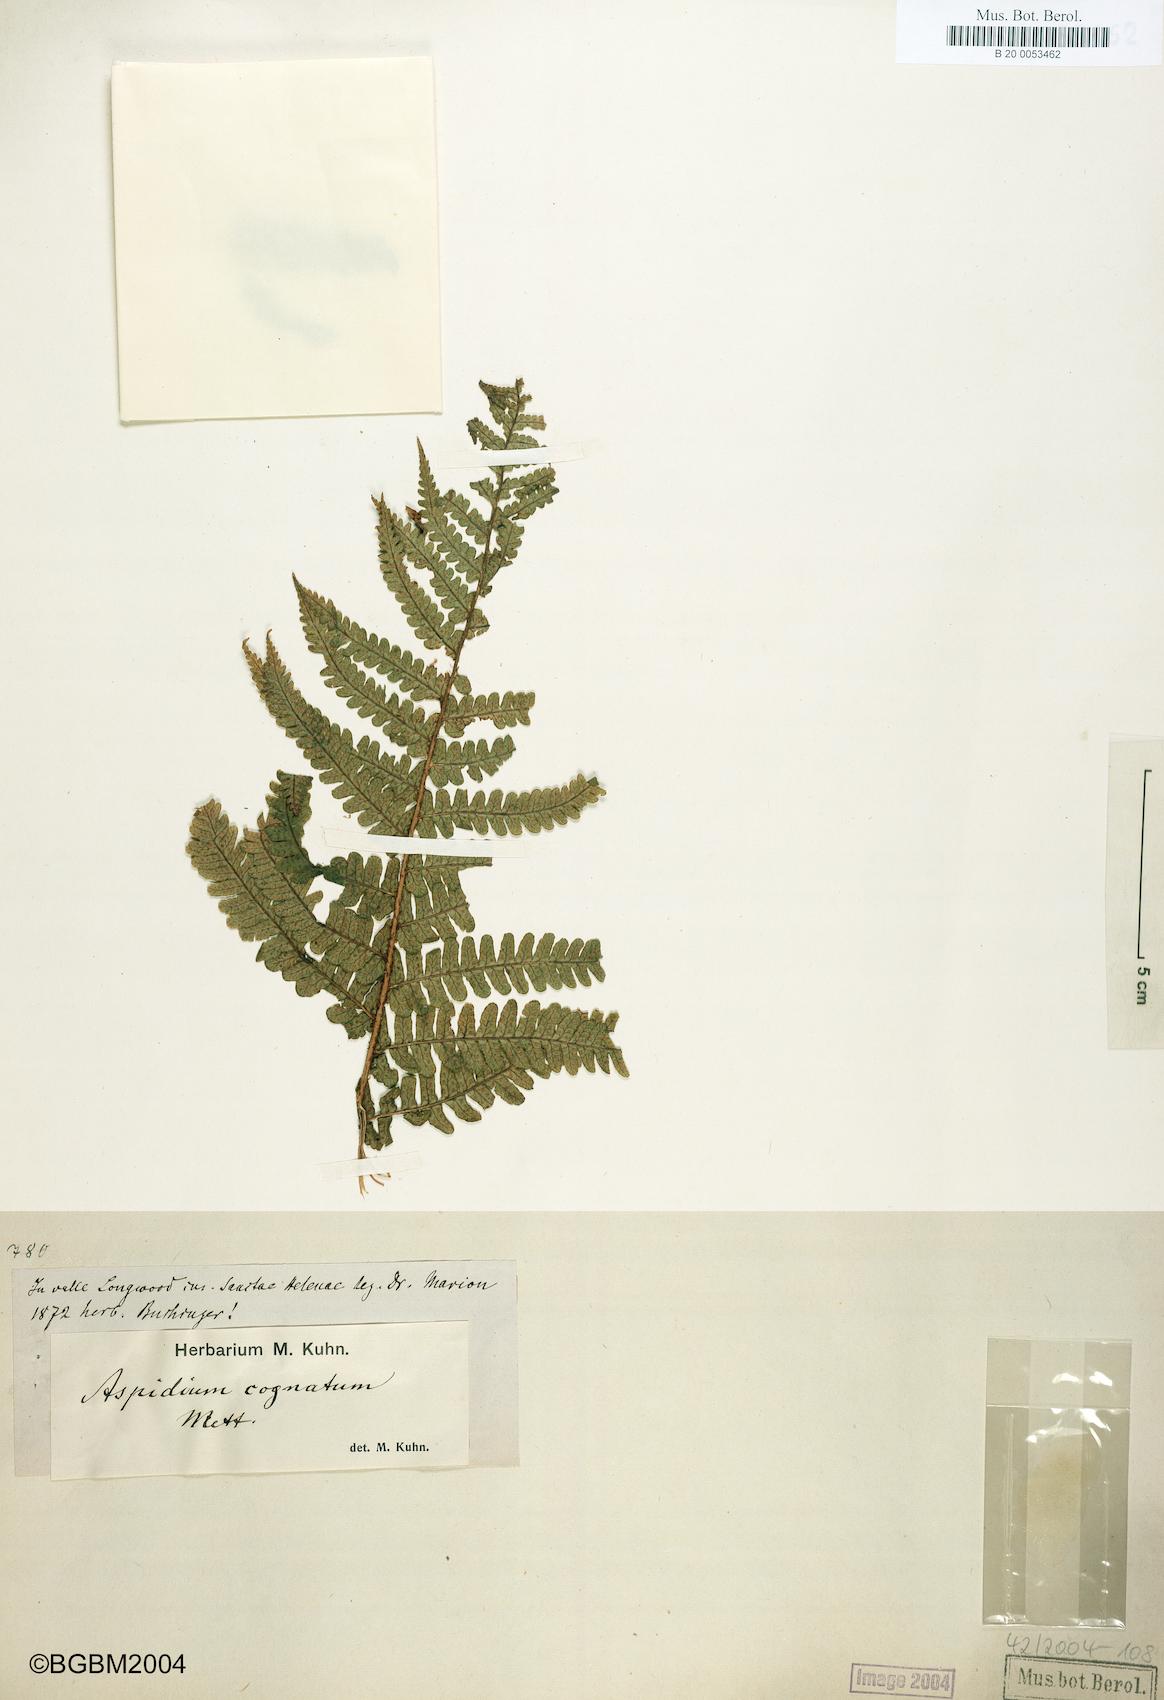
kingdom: Plantae
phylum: Tracheophyta
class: Polypodiopsida
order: Polypodiales
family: Dryopteridaceae
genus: Dryopteris
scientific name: Dryopteris cognata
